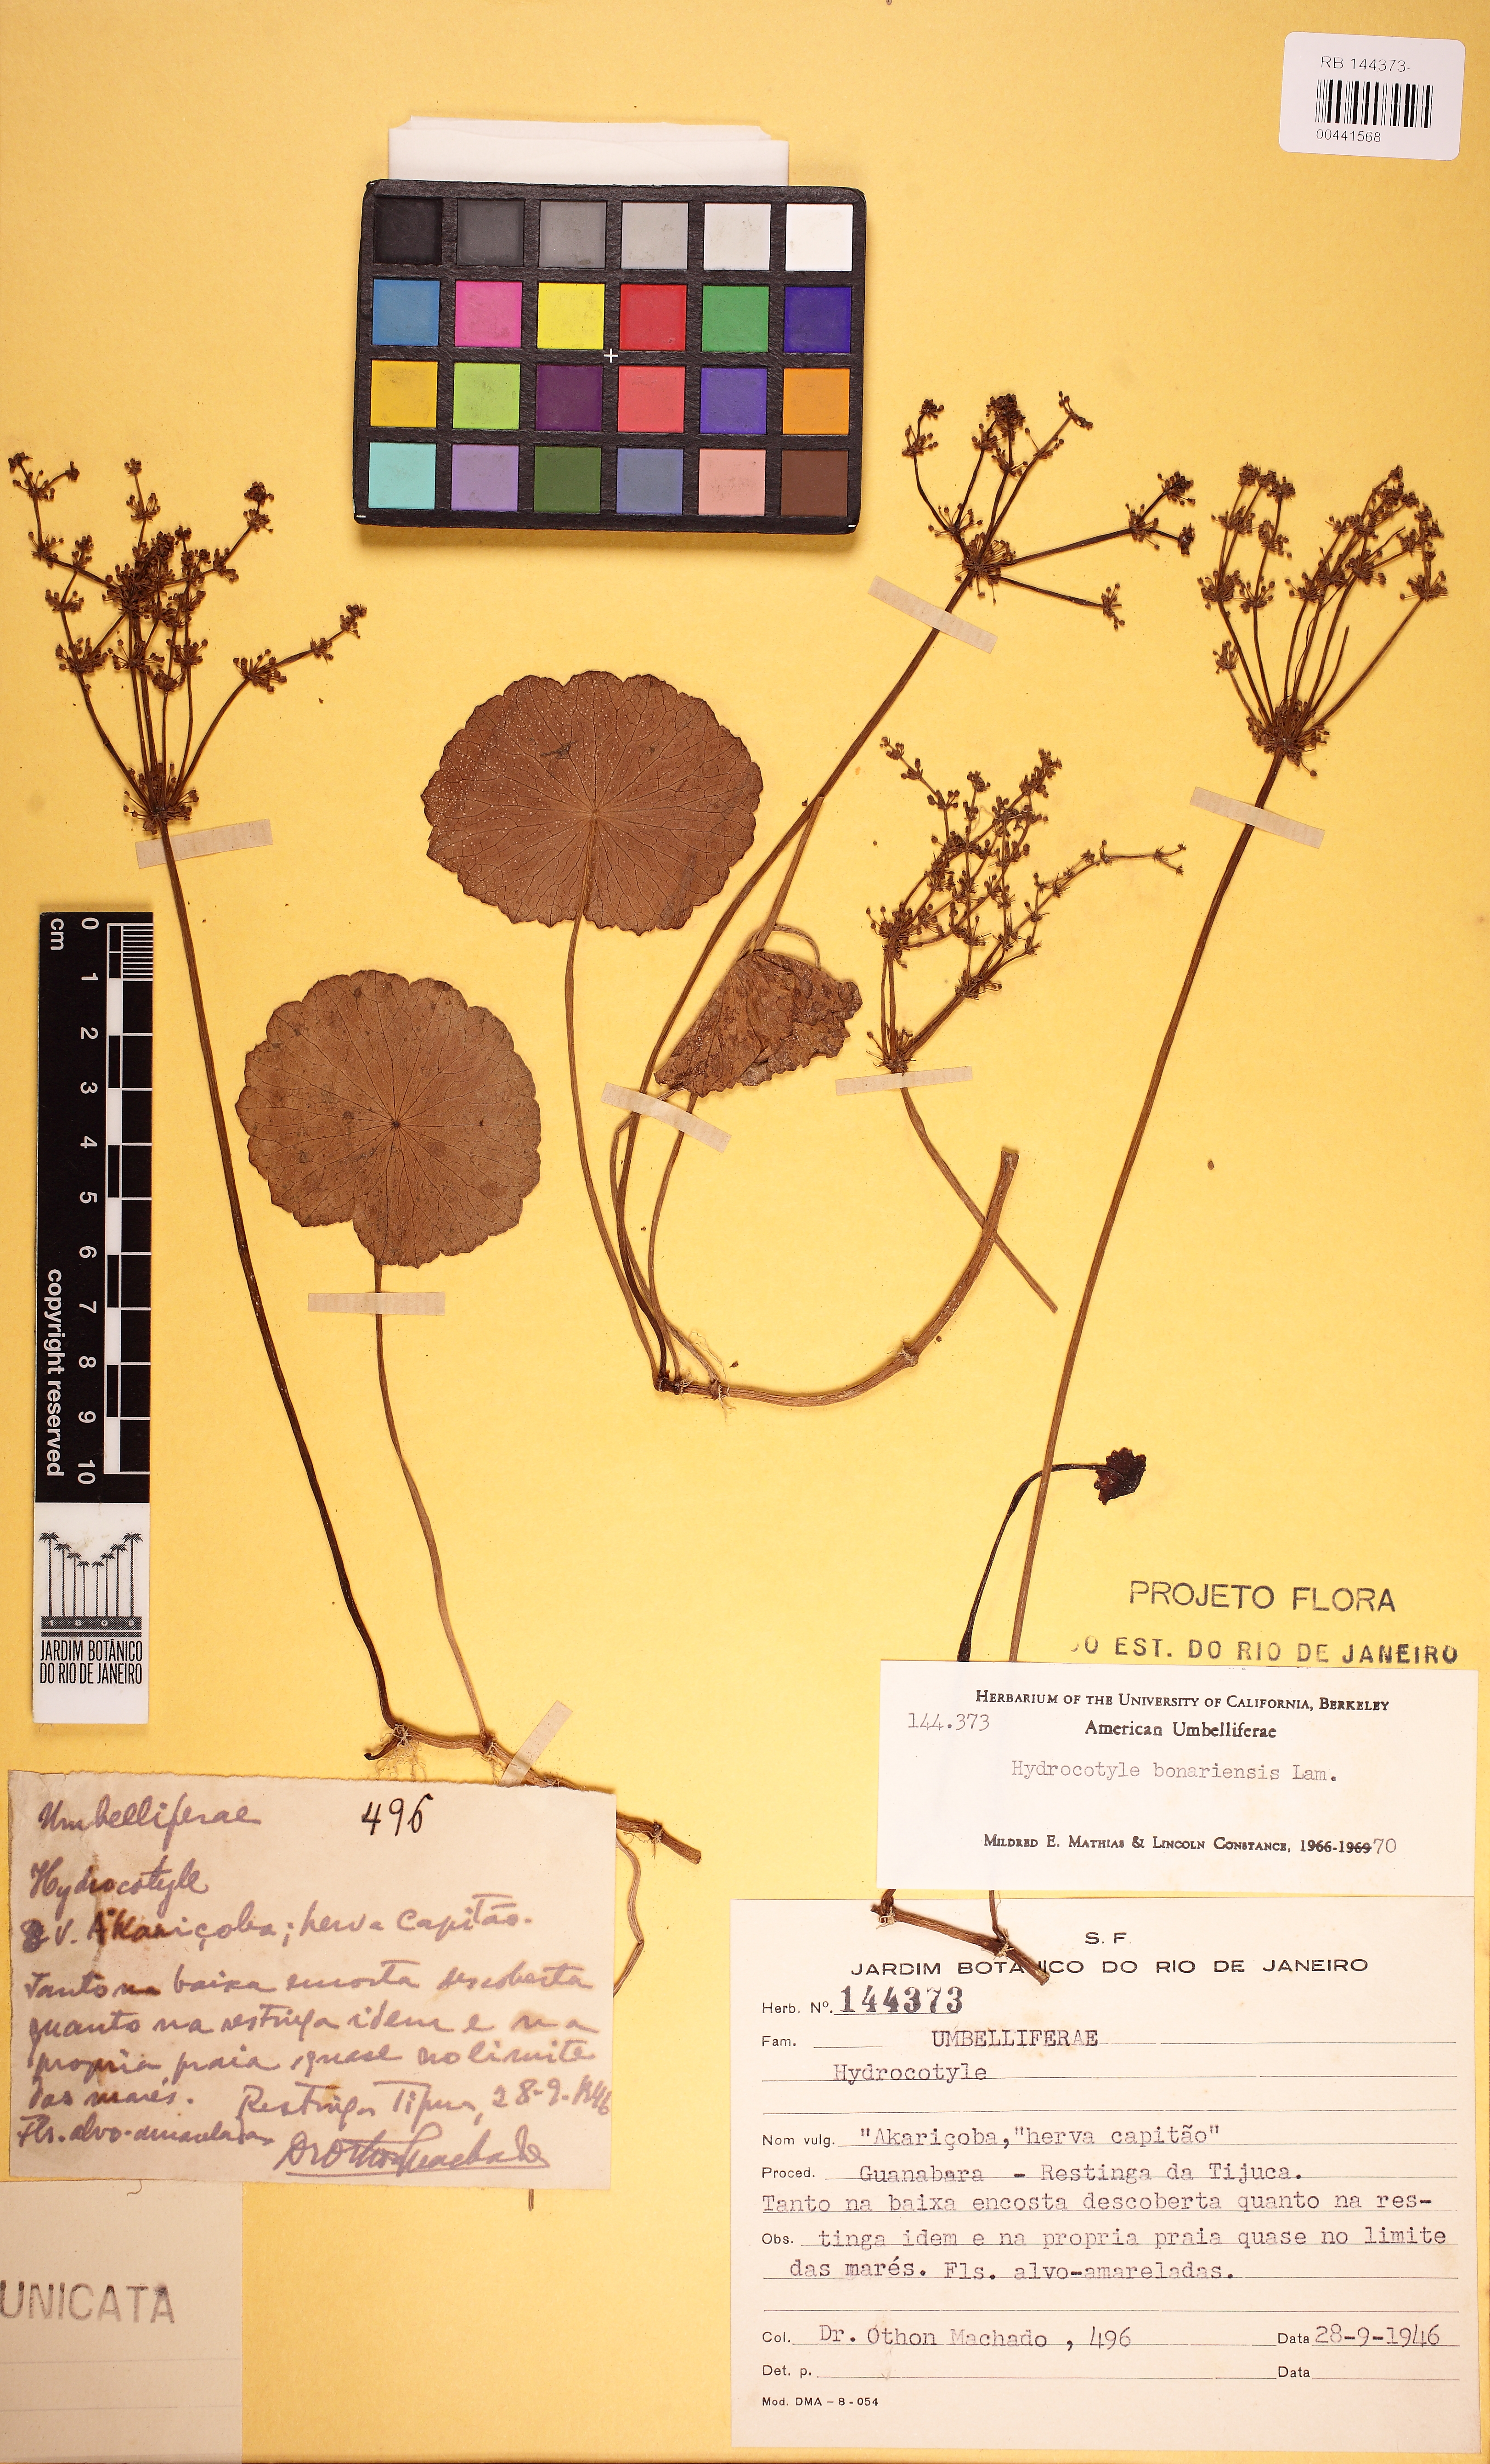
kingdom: Plantae
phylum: Tracheophyta
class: Magnoliopsida
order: Apiales
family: Araliaceae
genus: Hydrocotyle
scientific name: Hydrocotyle bonariensis
